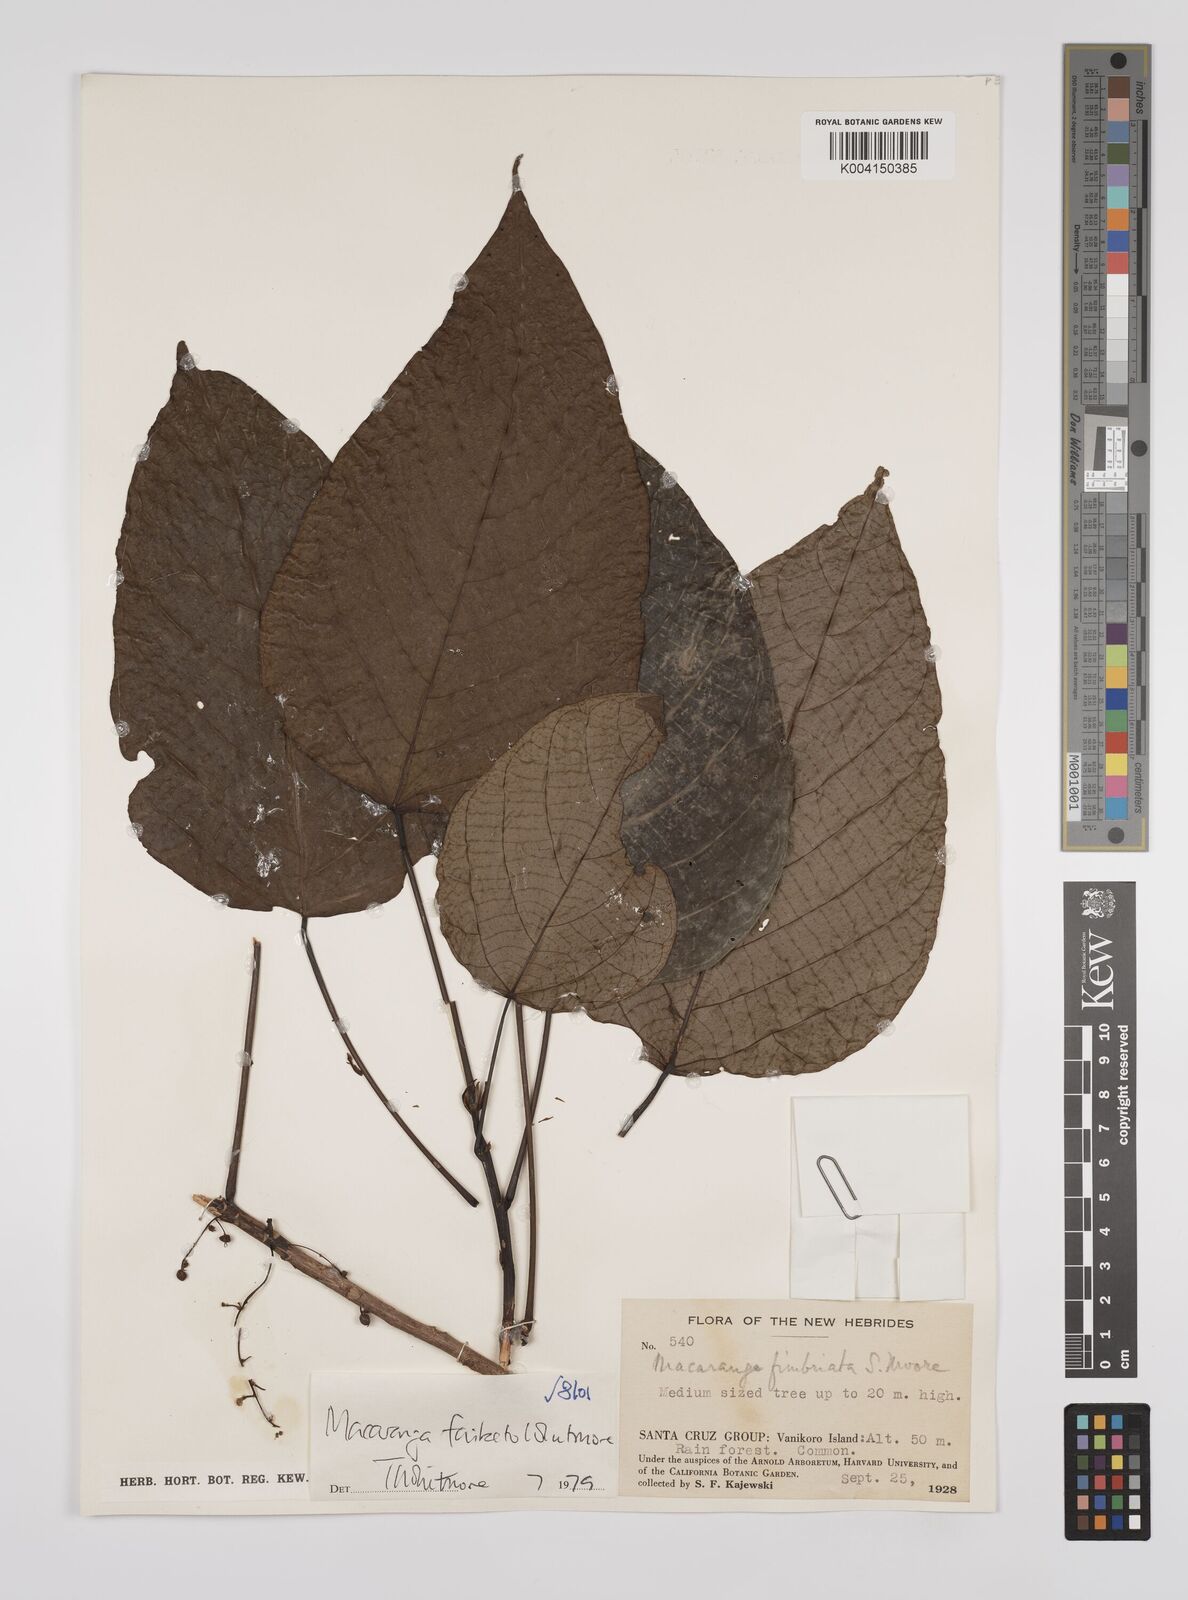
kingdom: Plantae
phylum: Tracheophyta
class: Magnoliopsida
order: Malpighiales
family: Euphorbiaceae
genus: Macaranga
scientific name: Macaranga faiketo
